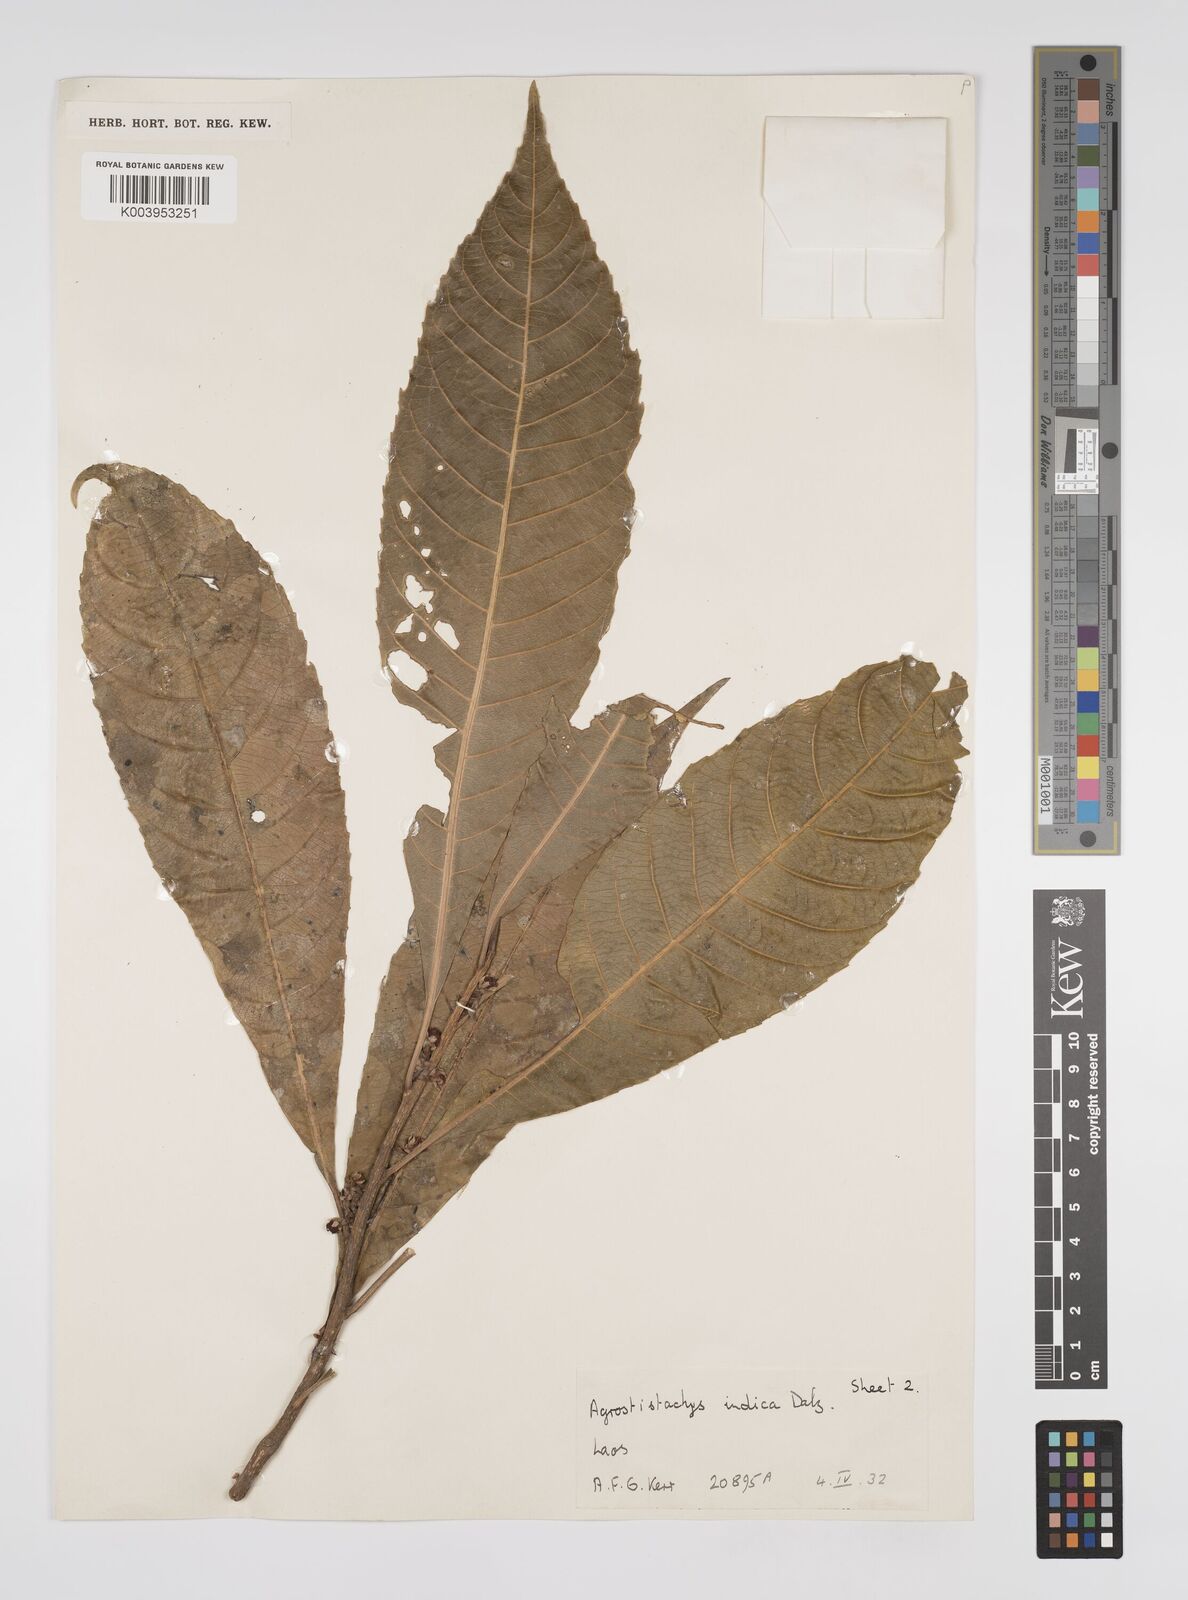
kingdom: Plantae
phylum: Tracheophyta
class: Magnoliopsida
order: Malpighiales
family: Euphorbiaceae
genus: Agrostistachys
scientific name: Agrostistachys indica
